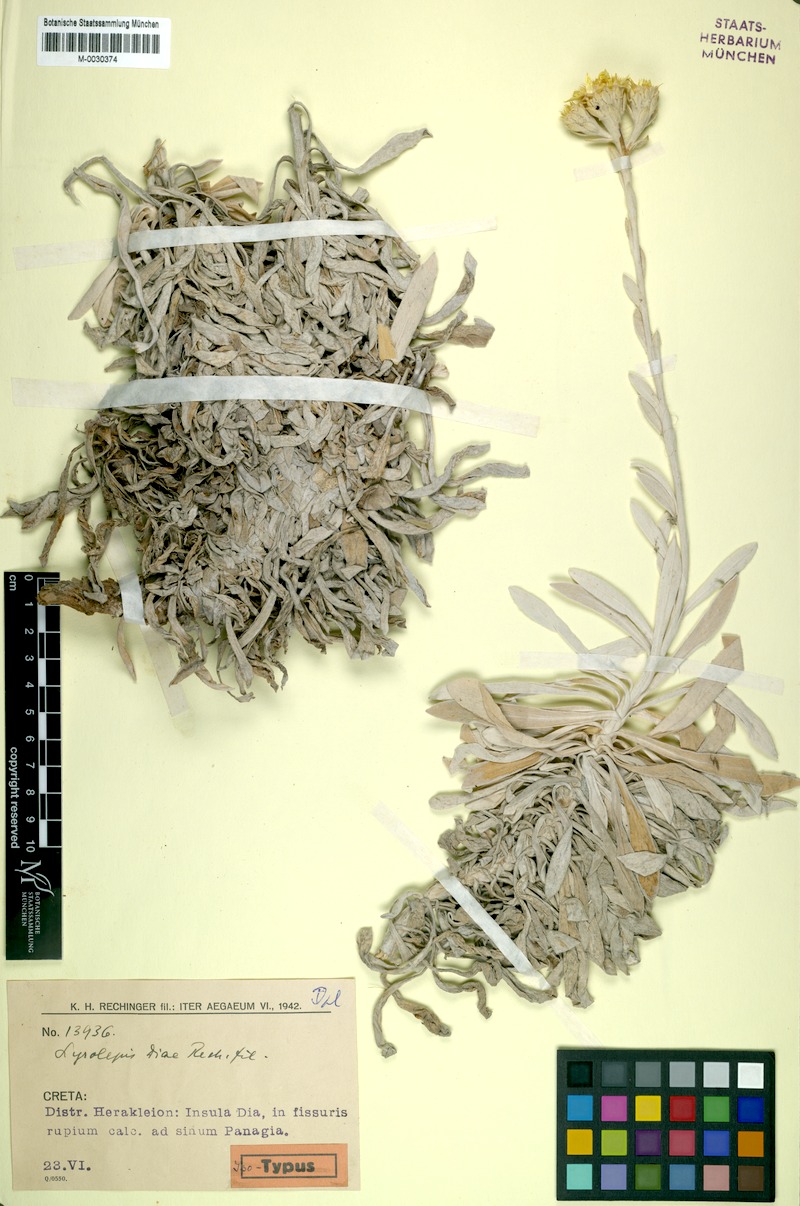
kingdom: Plantae
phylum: Tracheophyta
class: Magnoliopsida
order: Asterales
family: Asteraceae
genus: Carlina
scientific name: Carlina diae
